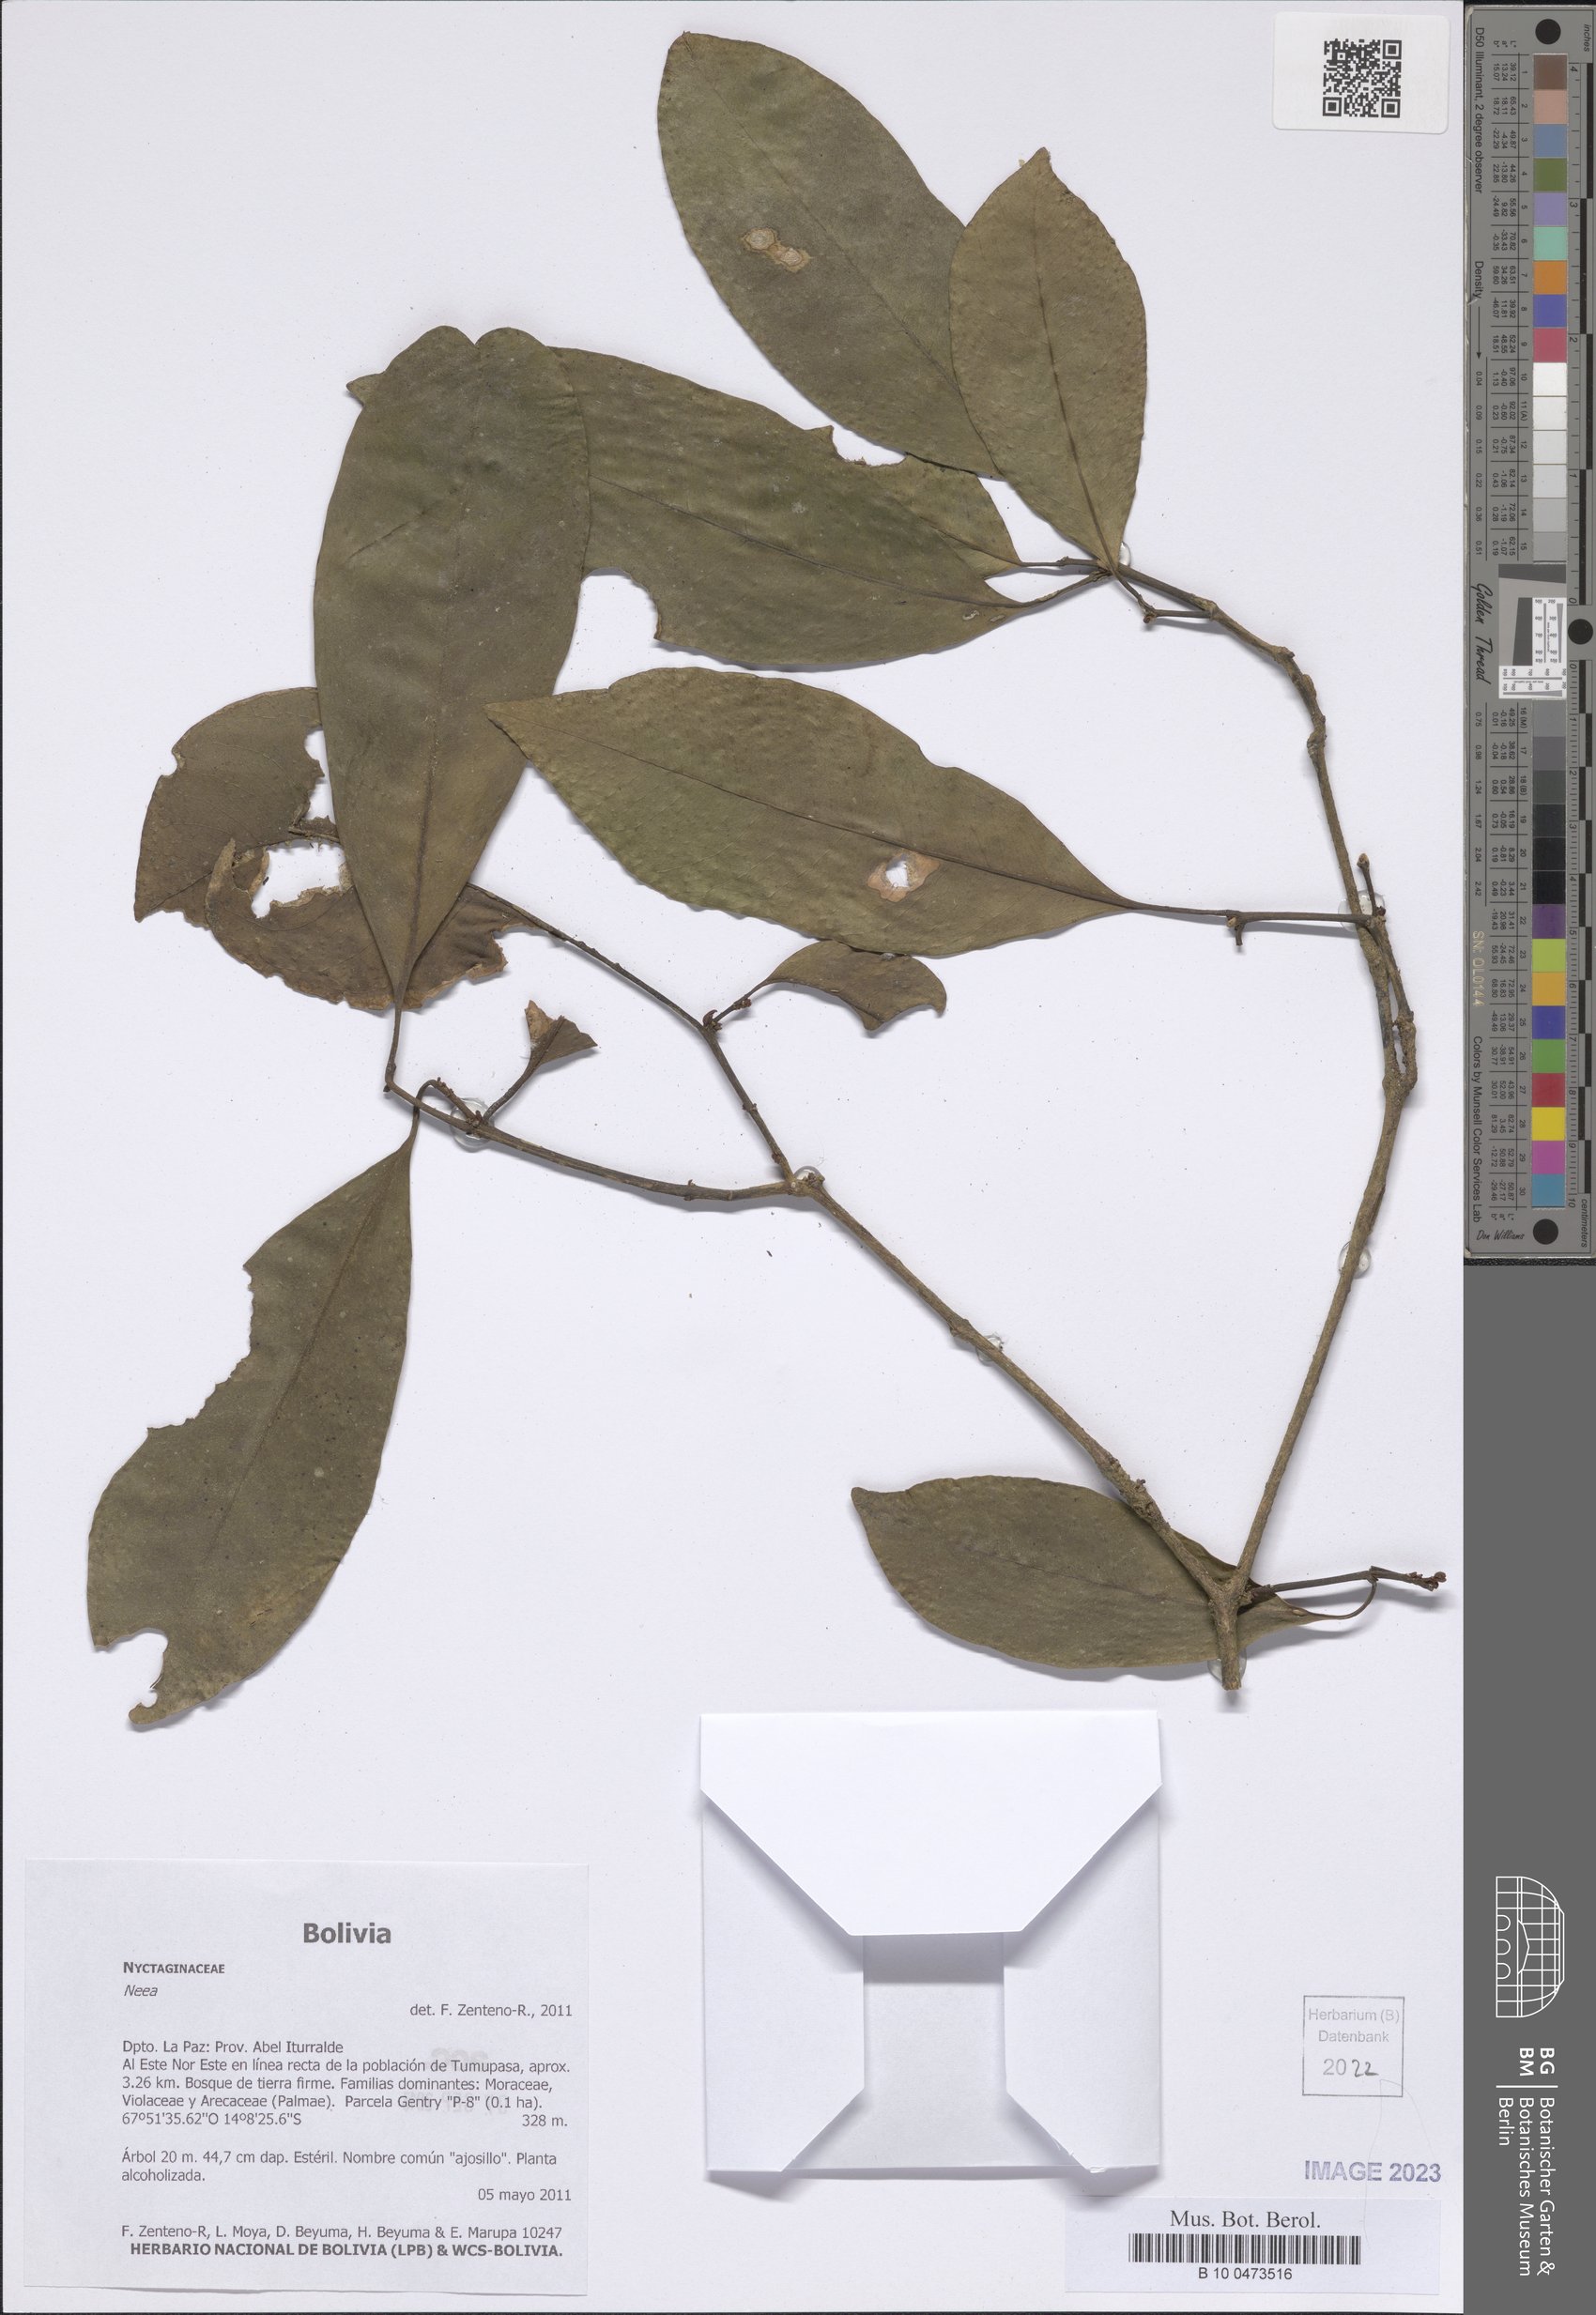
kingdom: Plantae
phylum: Tracheophyta
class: Magnoliopsida
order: Caryophyllales
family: Nyctaginaceae
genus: Neea
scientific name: Neea
